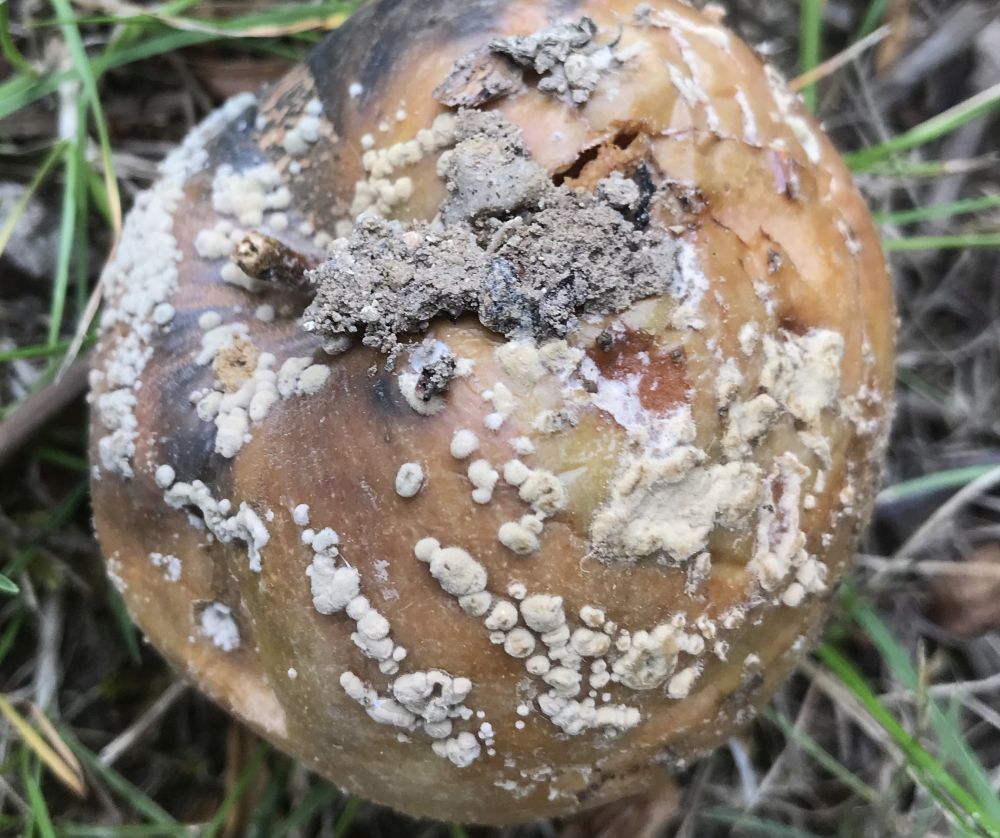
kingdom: Fungi
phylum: Ascomycota
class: Leotiomycetes
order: Helotiales
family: Sclerotiniaceae
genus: Monilinia
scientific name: Monilinia fructigena
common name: æble-knoldskive
